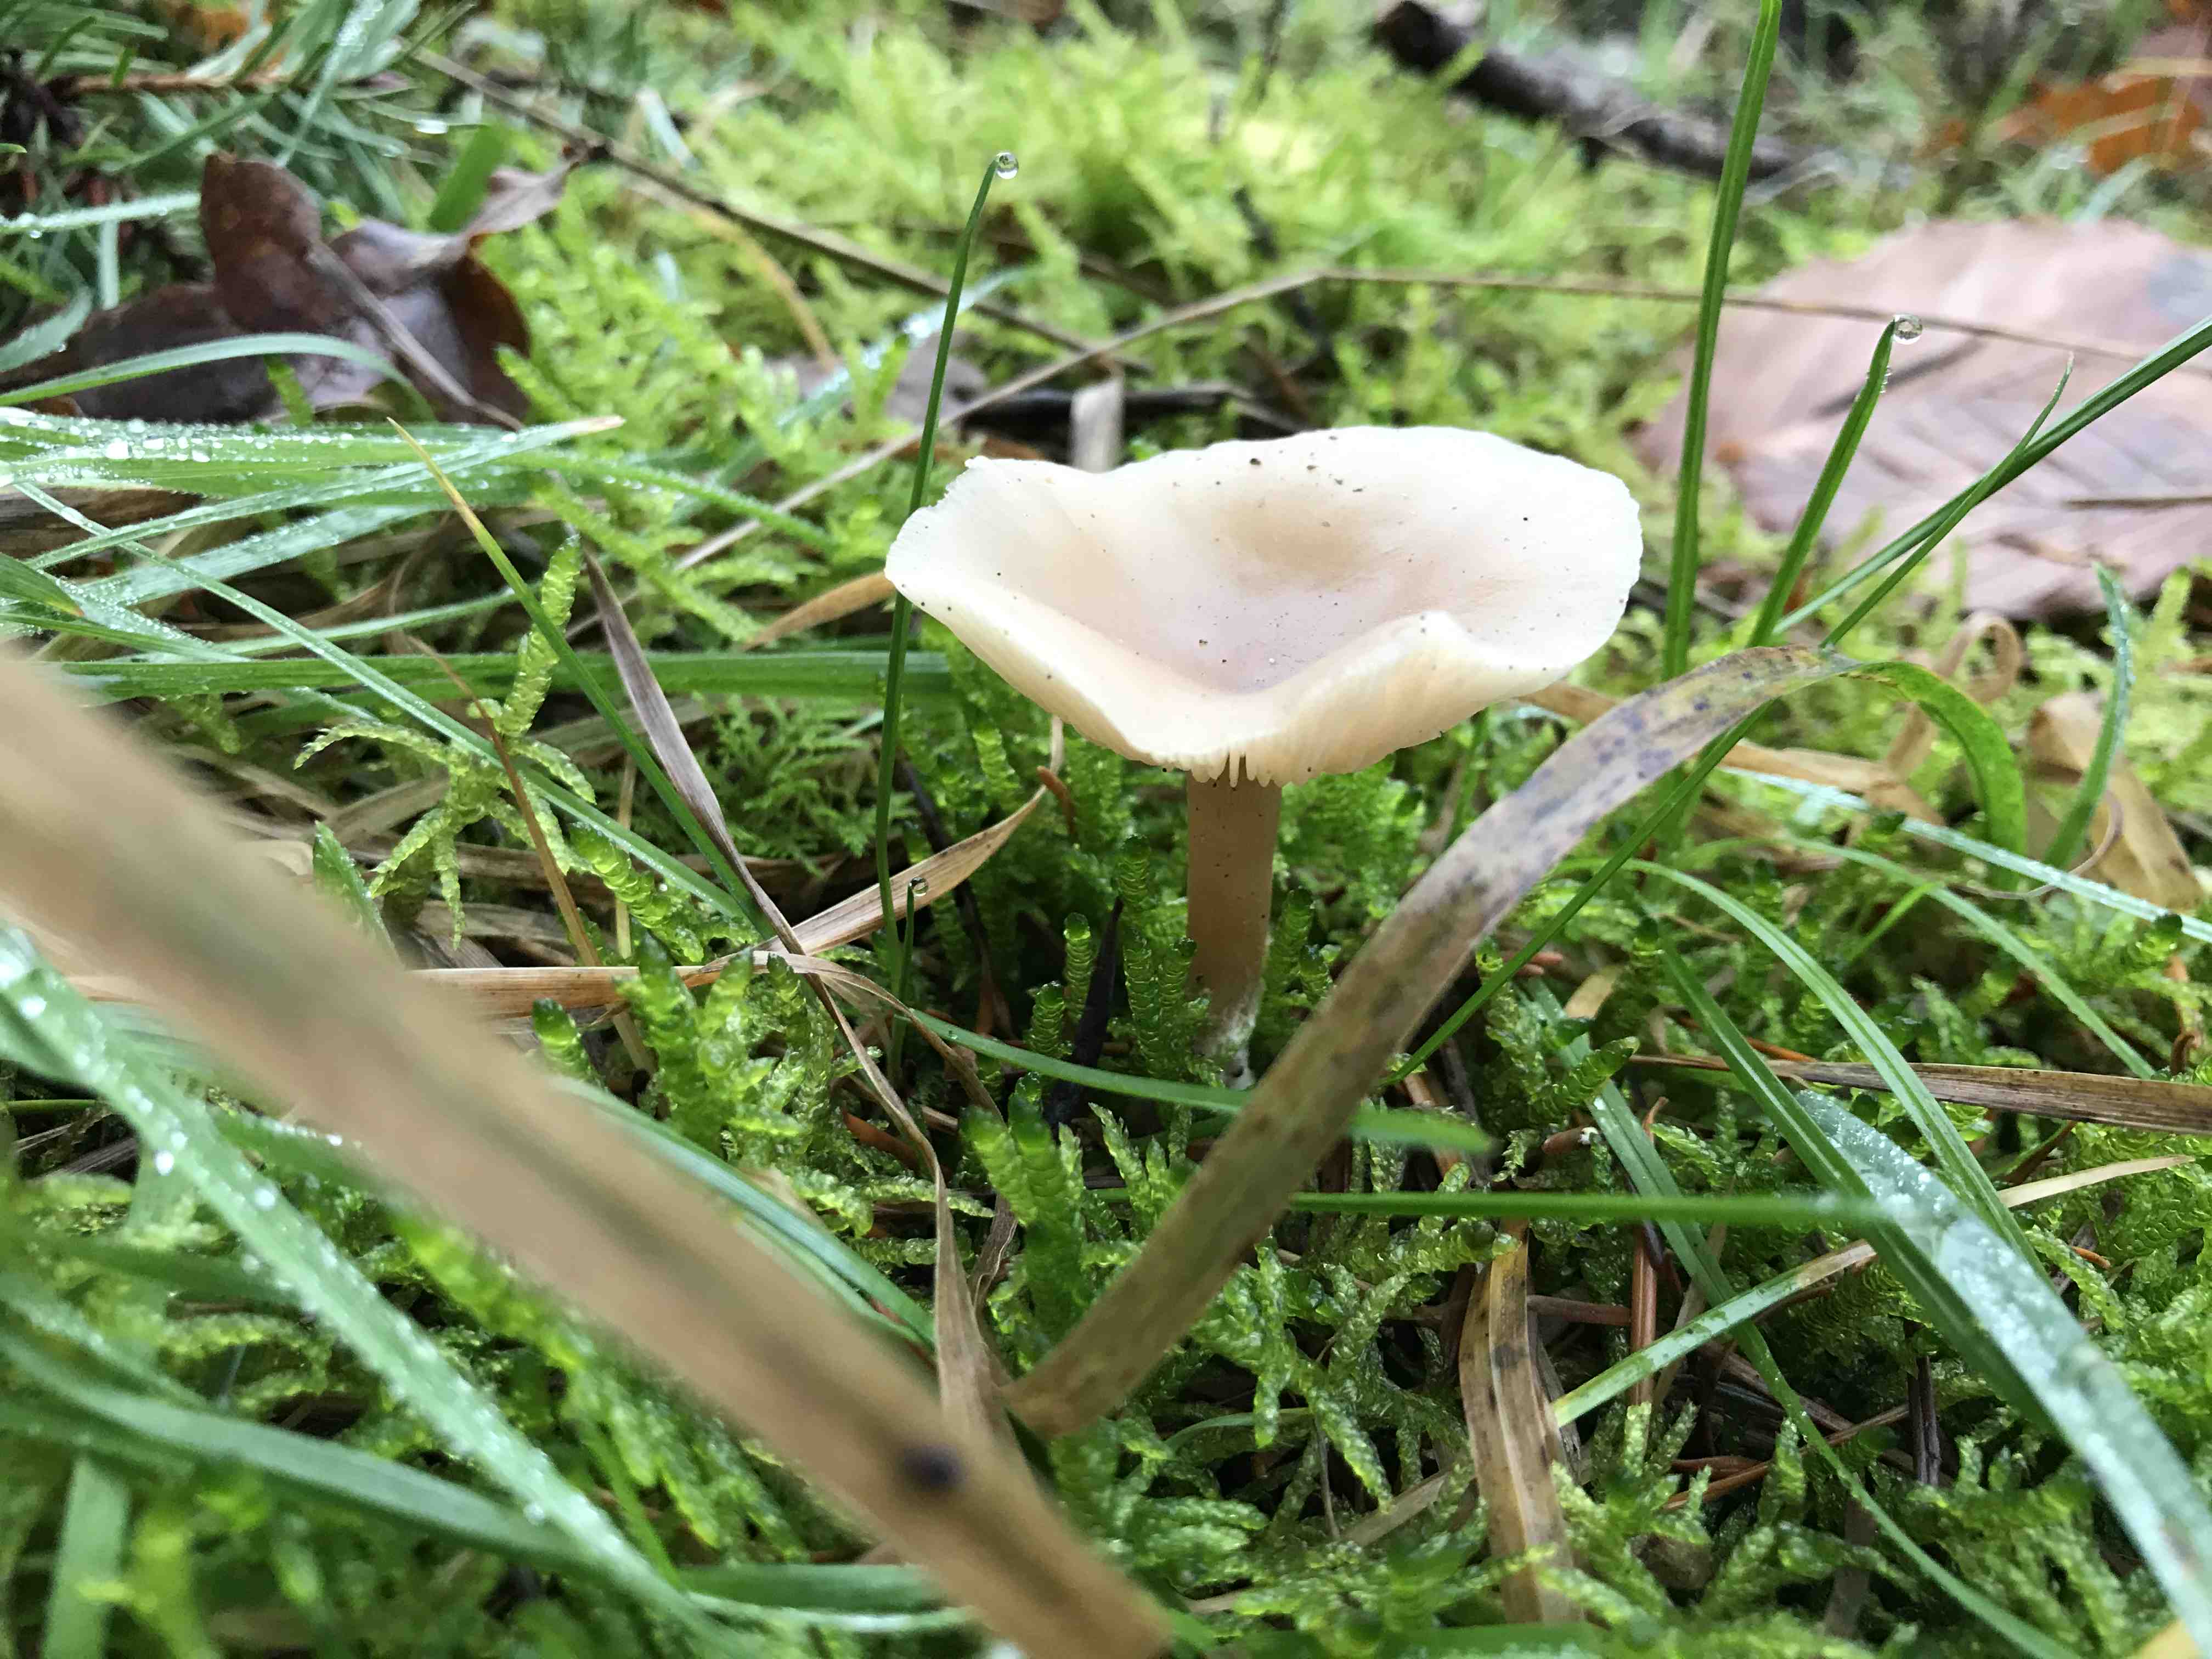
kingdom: Fungi
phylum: Basidiomycota
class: Agaricomycetes
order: Agaricales
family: Tricholomataceae
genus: Clitocybe
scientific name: Clitocybe fragrans
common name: vellugtende tragthat
